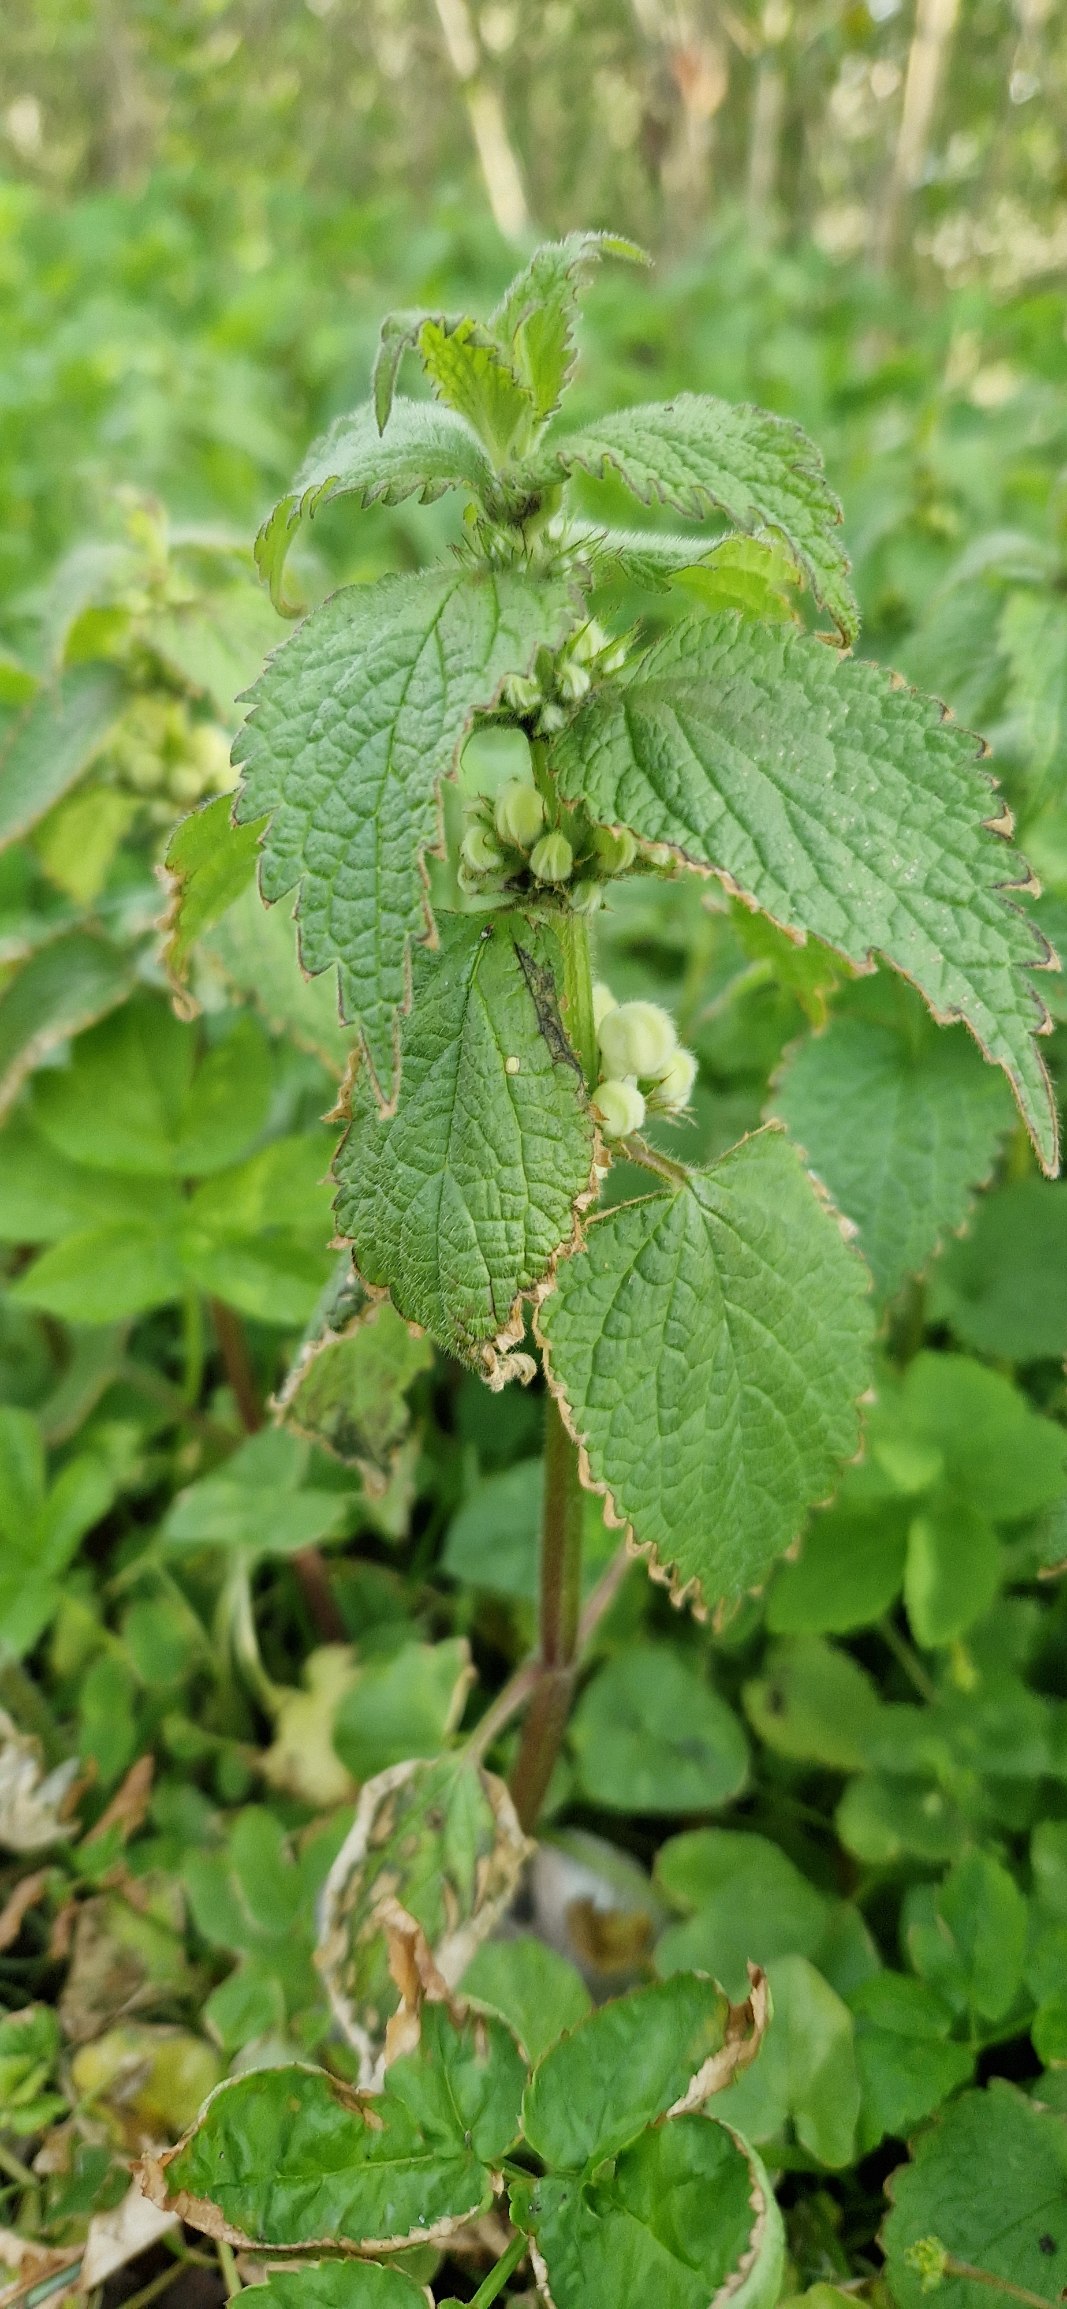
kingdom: Plantae
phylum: Tracheophyta
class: Magnoliopsida
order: Lamiales
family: Lamiaceae
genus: Lamium
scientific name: Lamium album
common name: Døvnælde
